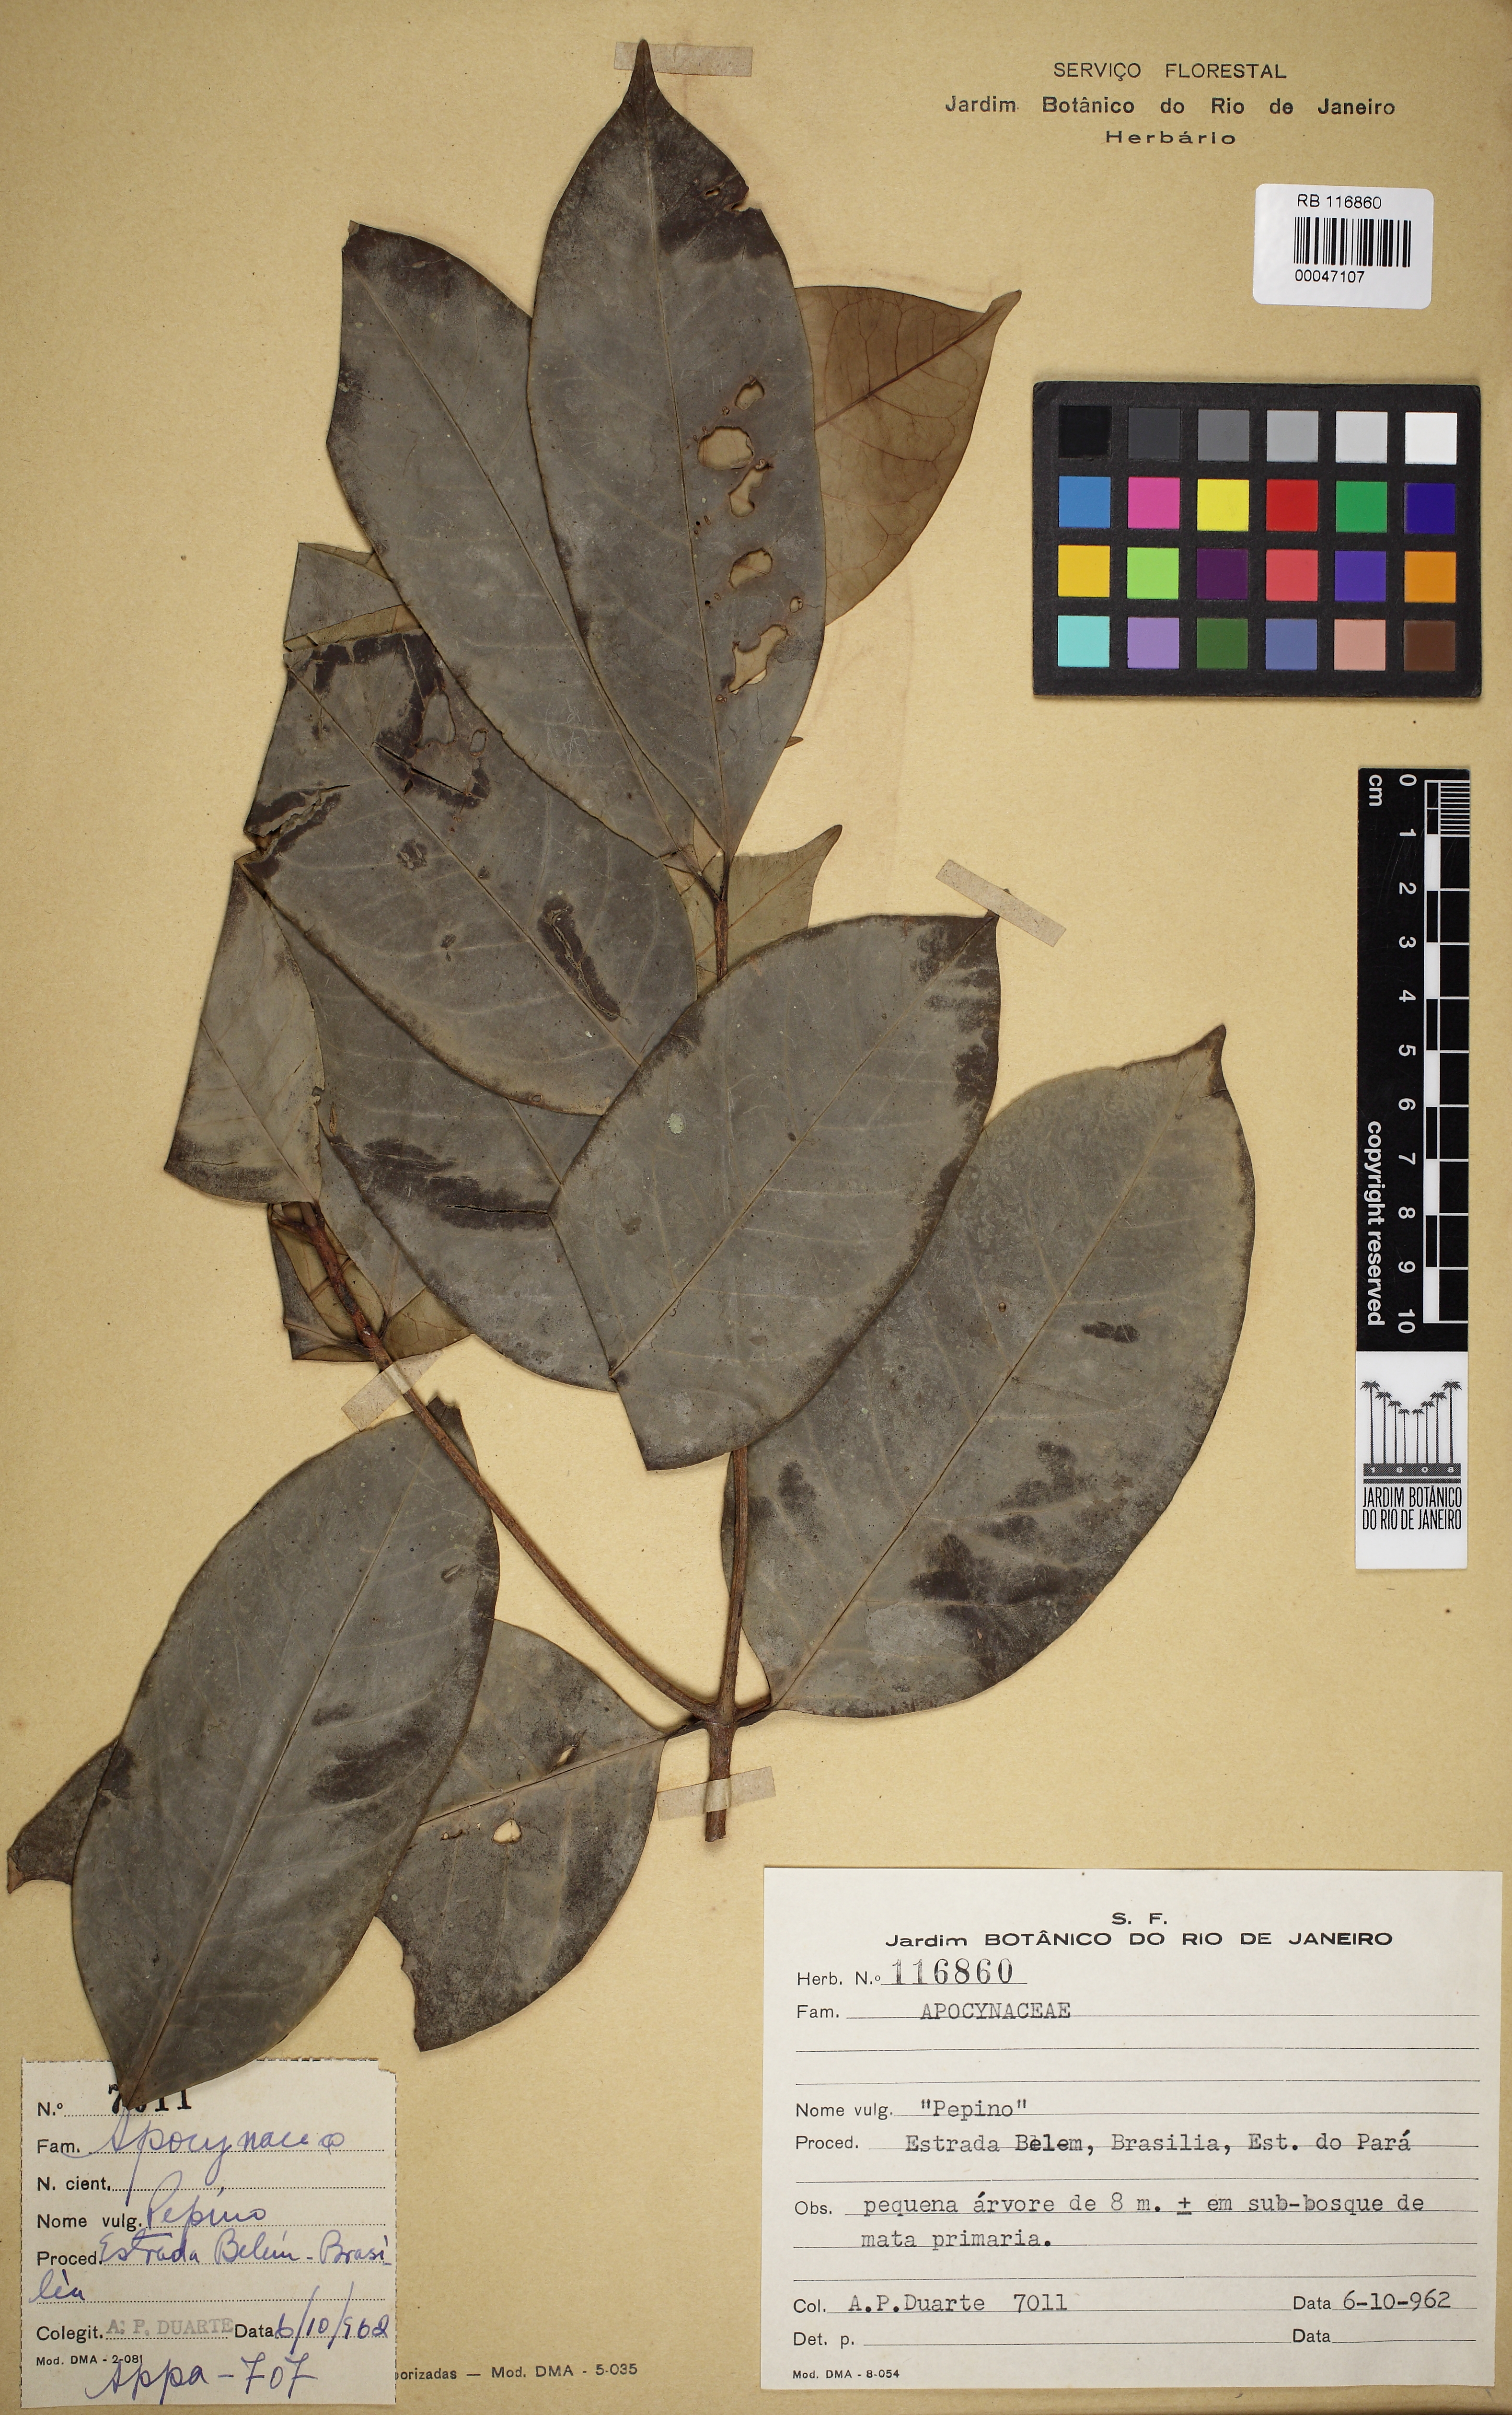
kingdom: Plantae
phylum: Tracheophyta
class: Magnoliopsida
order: Gentianales
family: Apocynaceae
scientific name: Apocynaceae
